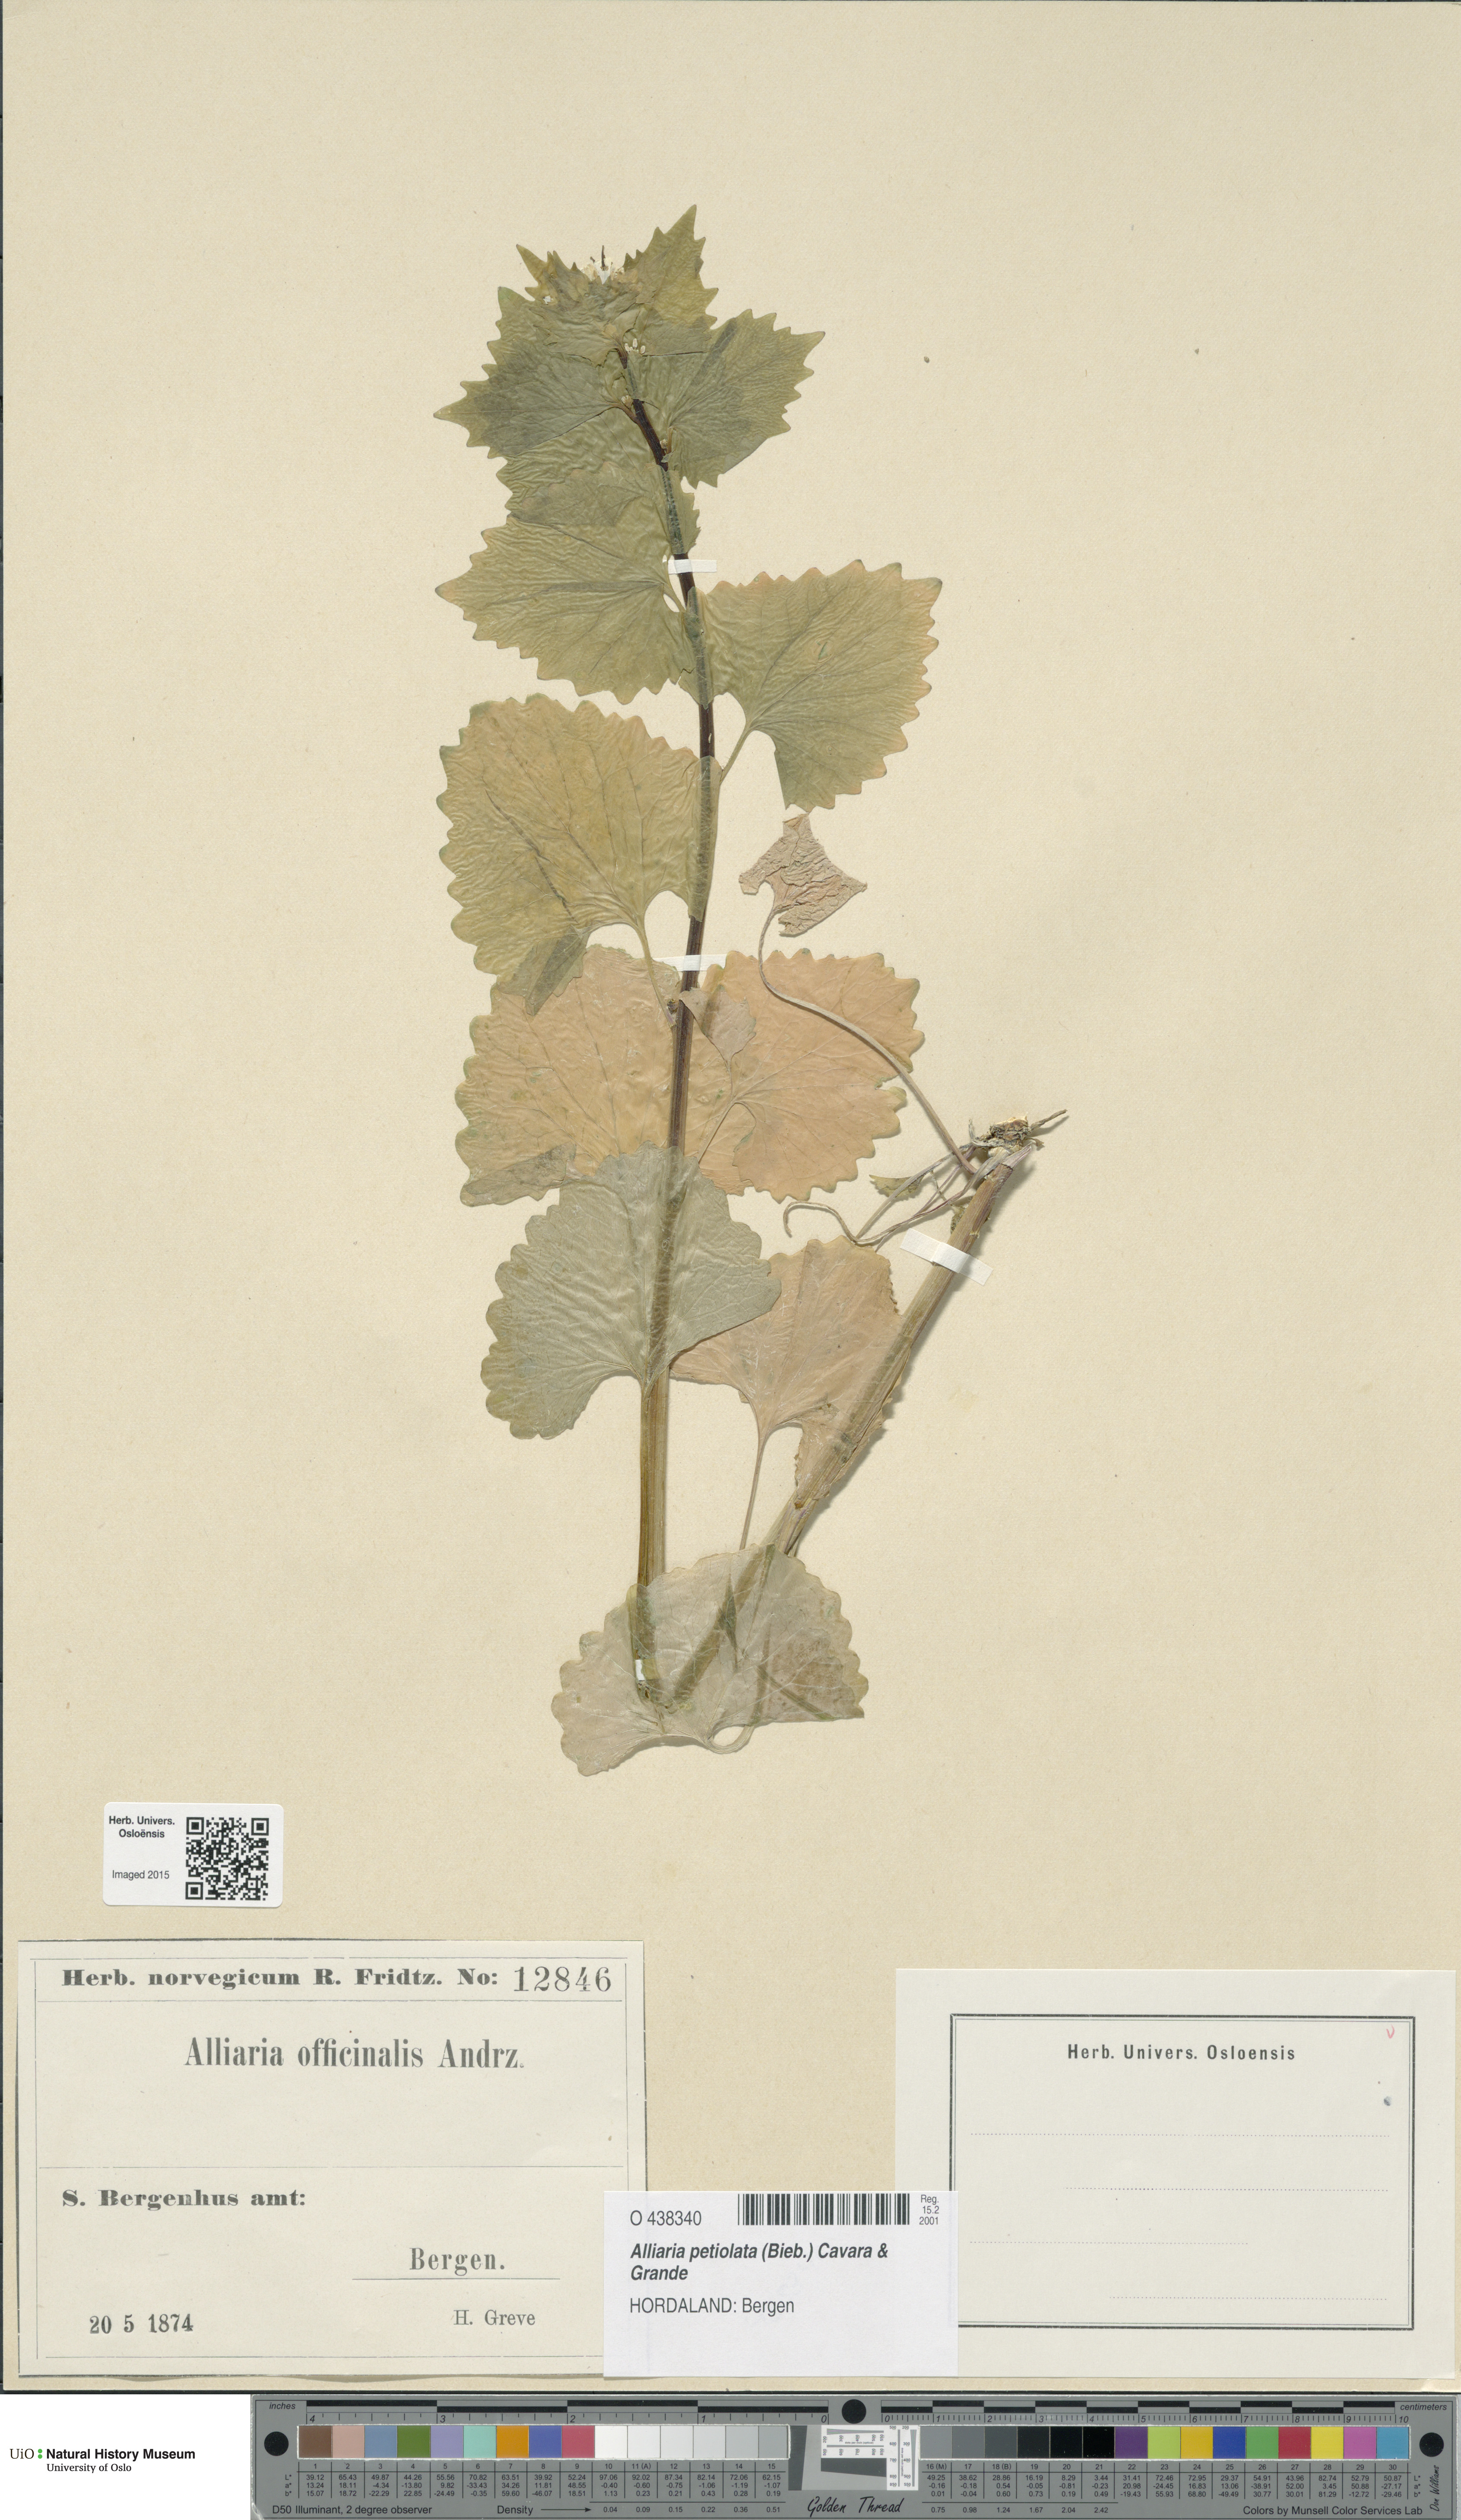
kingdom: Plantae
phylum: Tracheophyta
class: Magnoliopsida
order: Brassicales
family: Brassicaceae
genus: Alliaria
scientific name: Alliaria petiolata
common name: Garlic mustard
